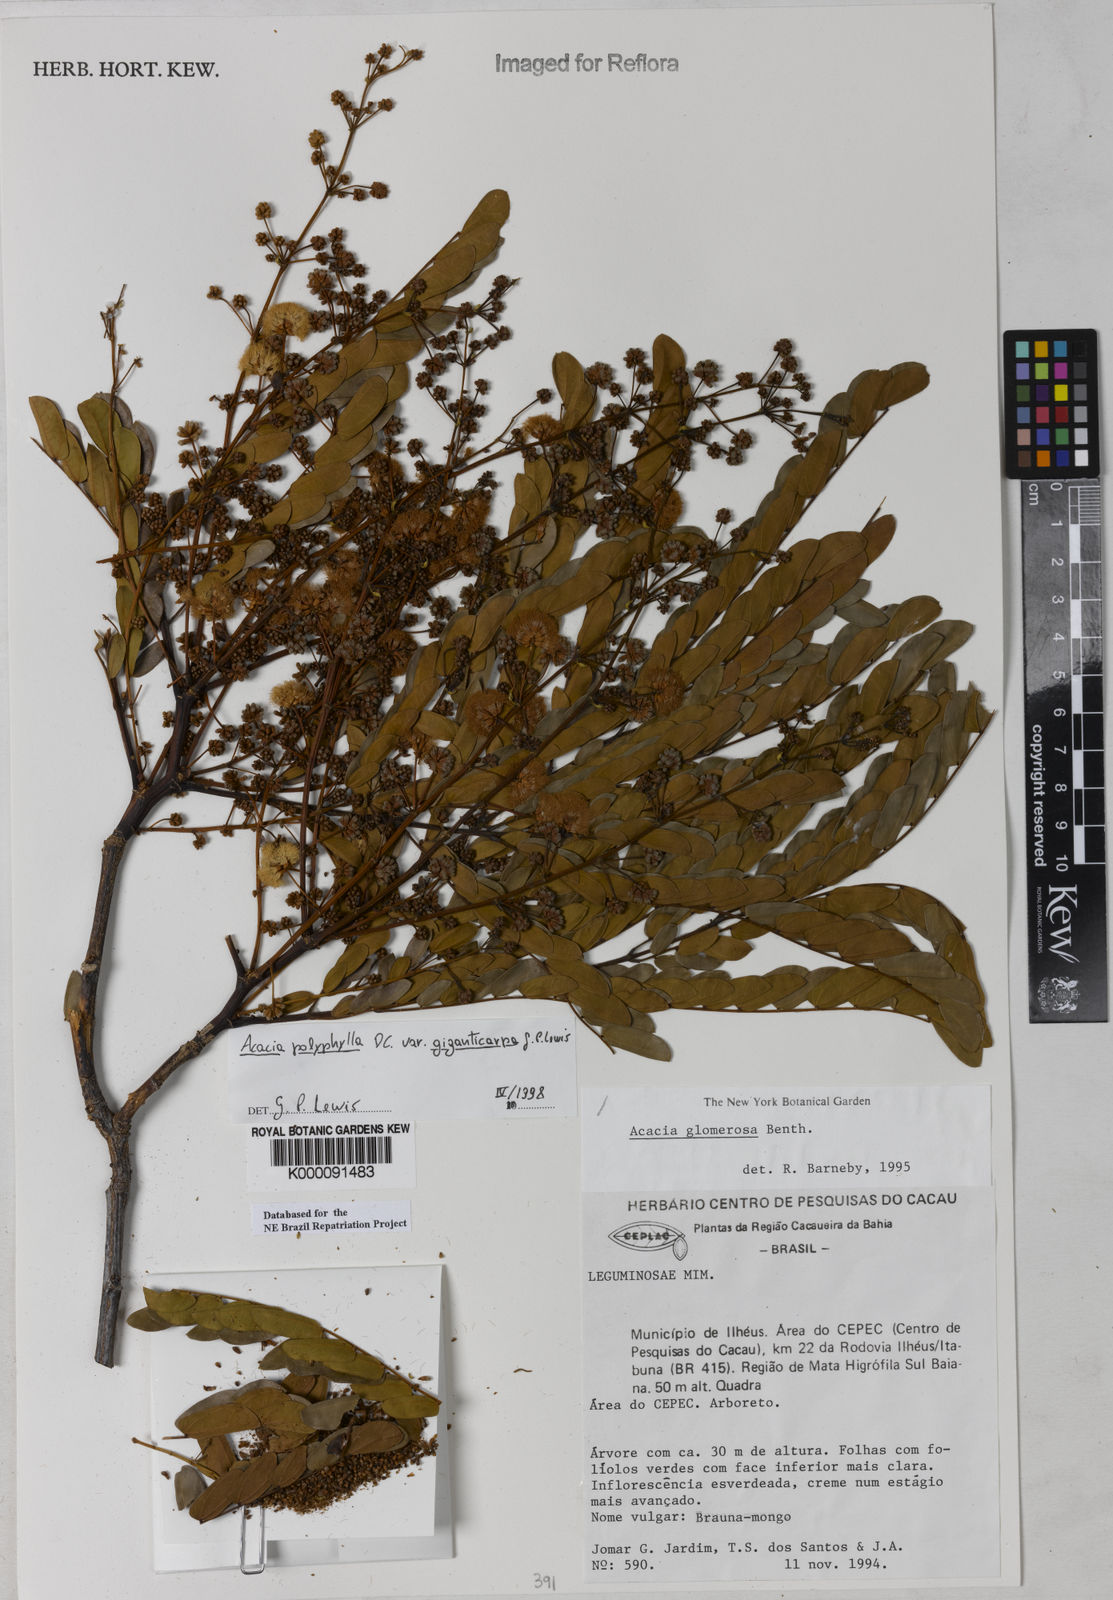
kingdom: Plantae
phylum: Tracheophyta
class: Magnoliopsida
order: Fabales
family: Fabaceae
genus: Senegalia
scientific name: Senegalia giganticarpa
